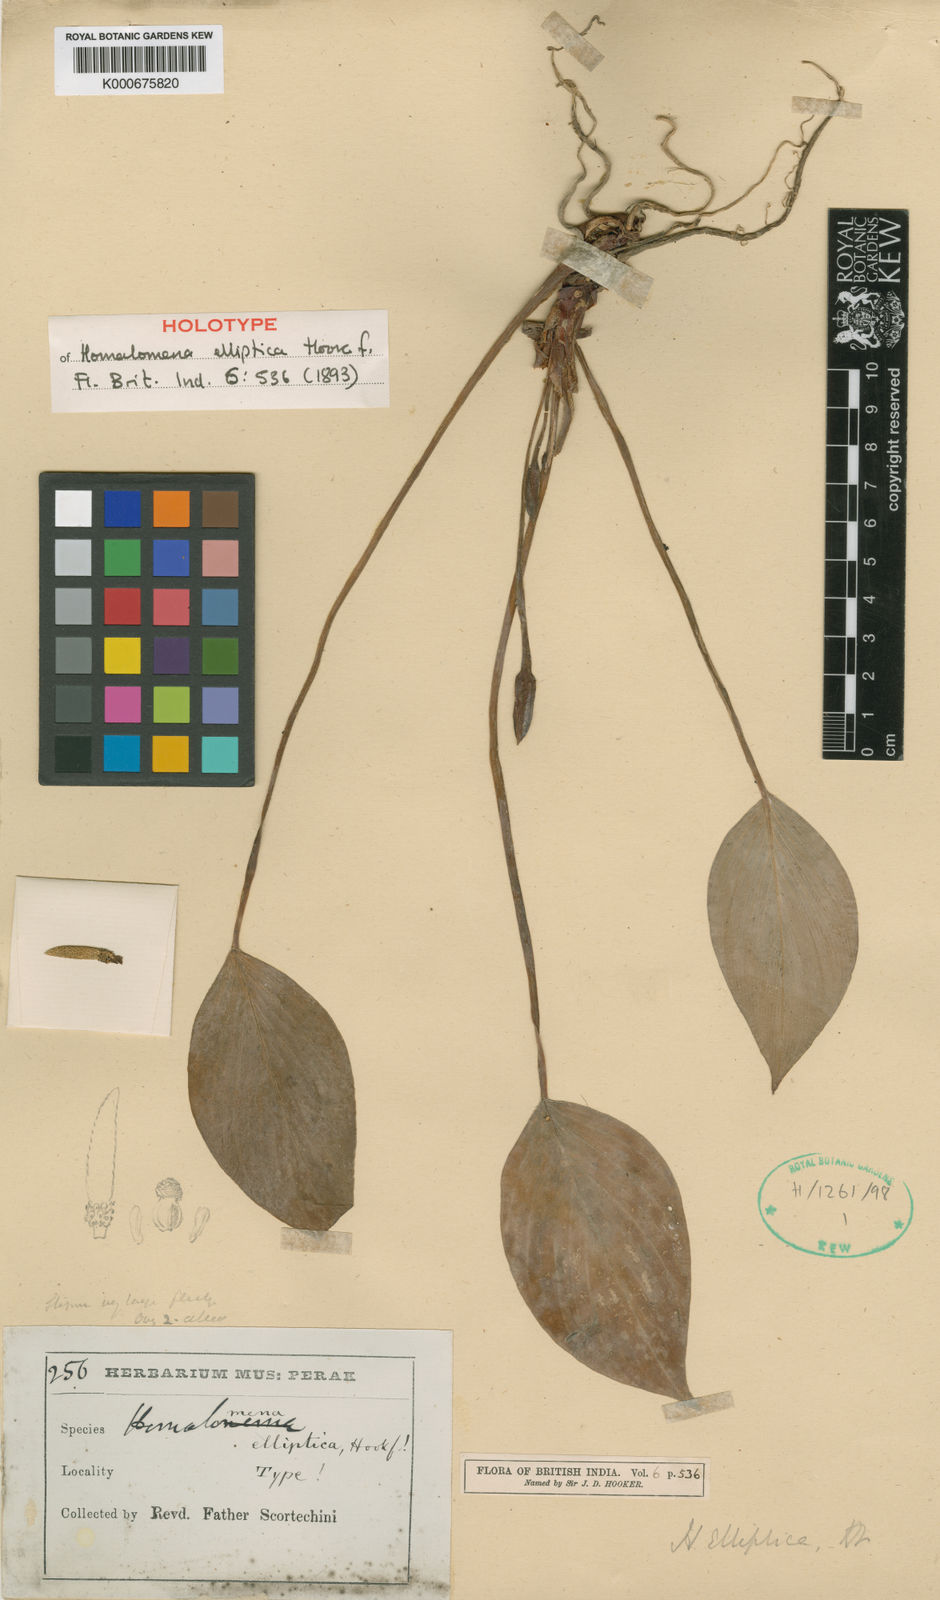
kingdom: Plantae
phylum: Tracheophyta
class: Liliopsida
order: Alismatales
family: Araceae
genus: Homalomena
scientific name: Homalomena griffithii
